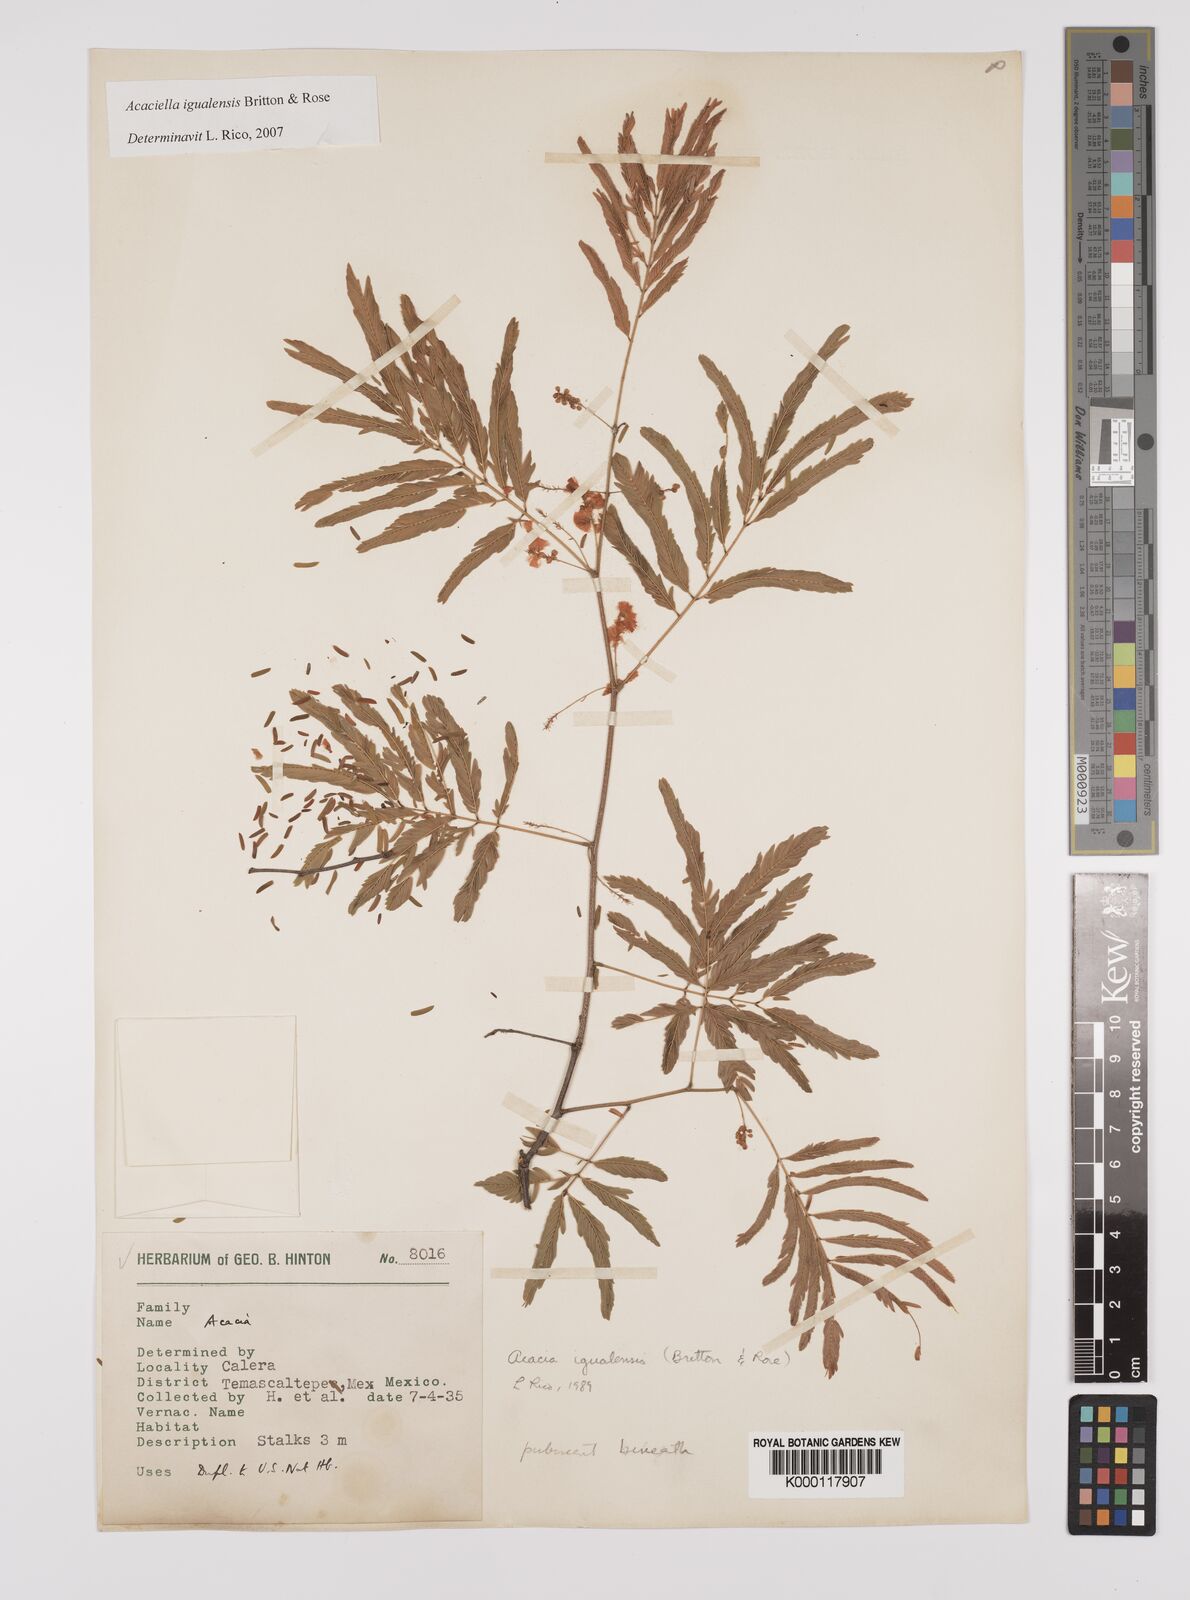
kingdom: Plantae
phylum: Tracheophyta
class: Magnoliopsida
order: Fabales
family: Fabaceae
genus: Acaciella
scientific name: Acaciella igualensis
